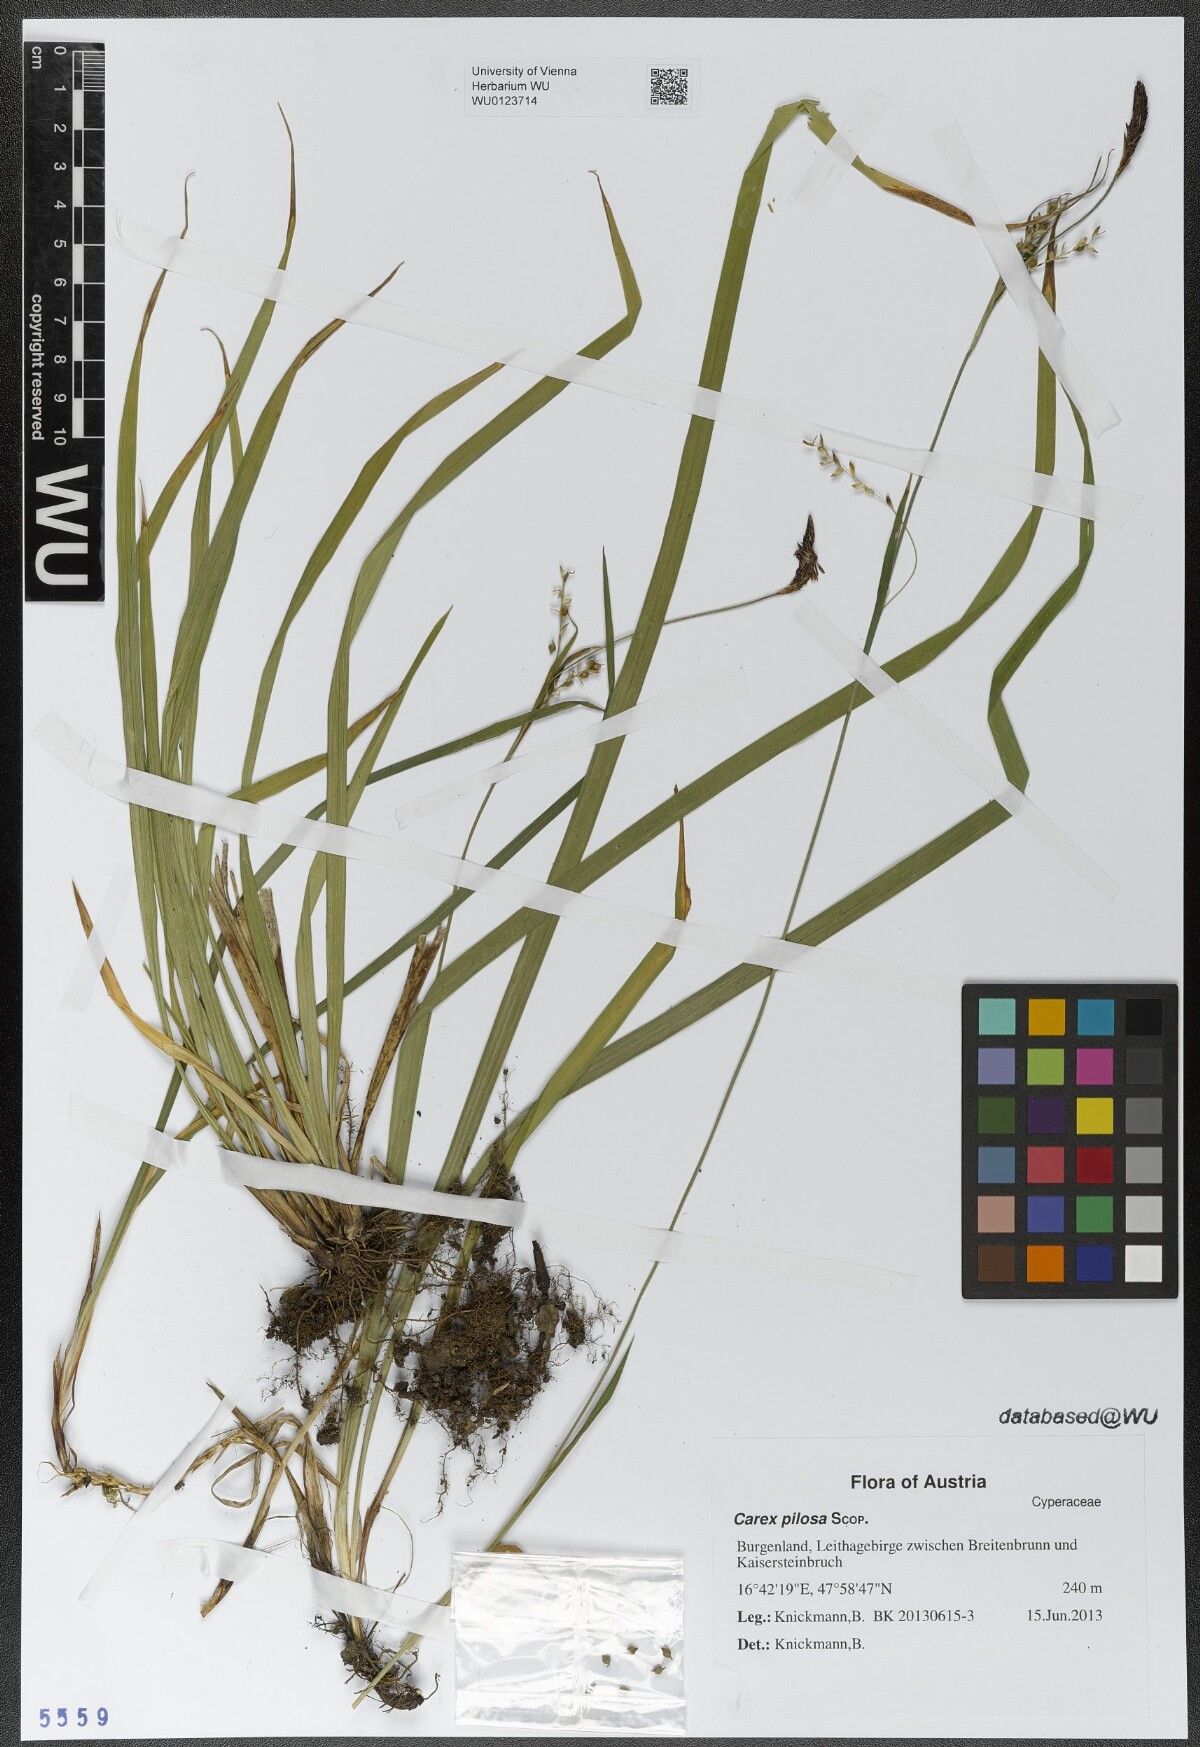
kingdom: Plantae
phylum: Tracheophyta
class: Liliopsida
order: Poales
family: Cyperaceae
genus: Carex
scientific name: Carex pilosa
